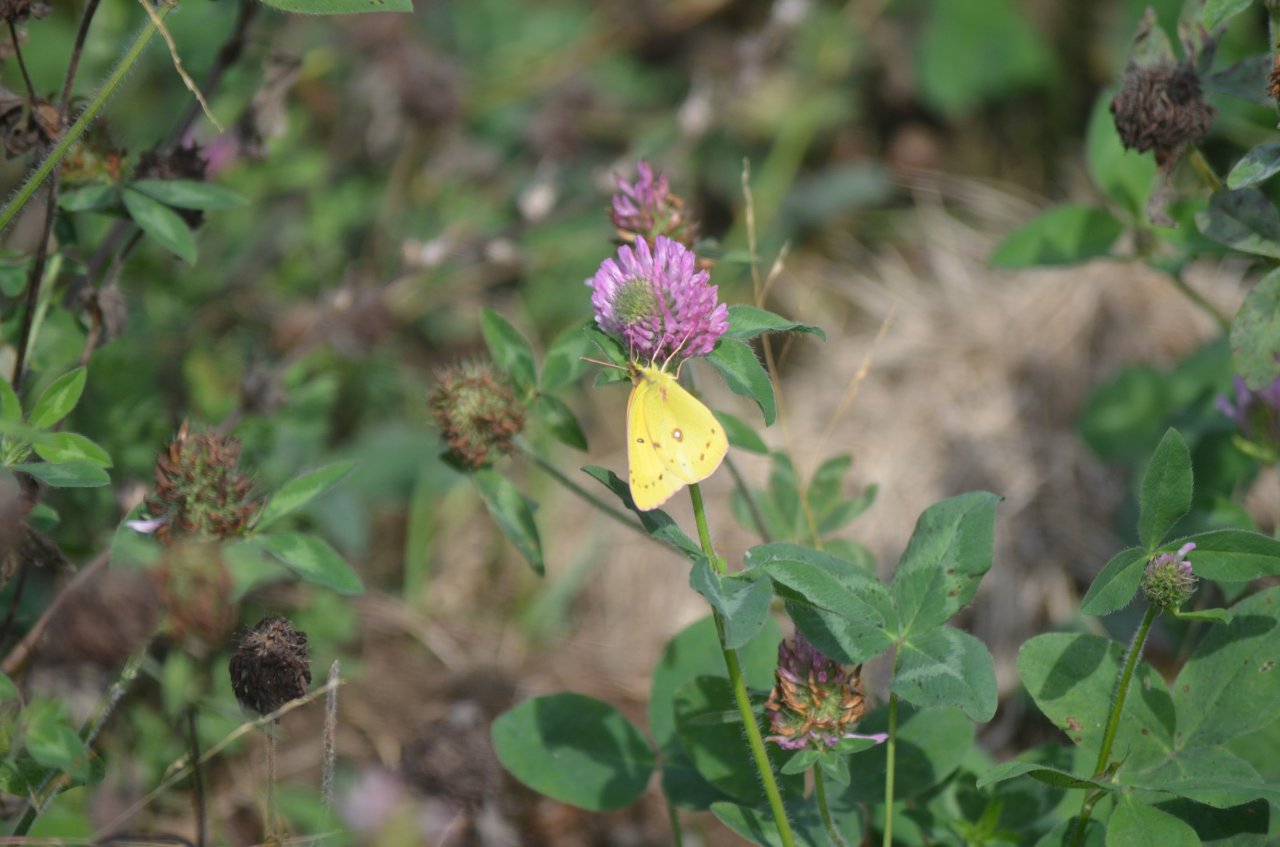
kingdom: Animalia
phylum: Arthropoda
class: Insecta
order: Lepidoptera
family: Pieridae
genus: Colias
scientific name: Colias philodice
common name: Clouded Sulphur
